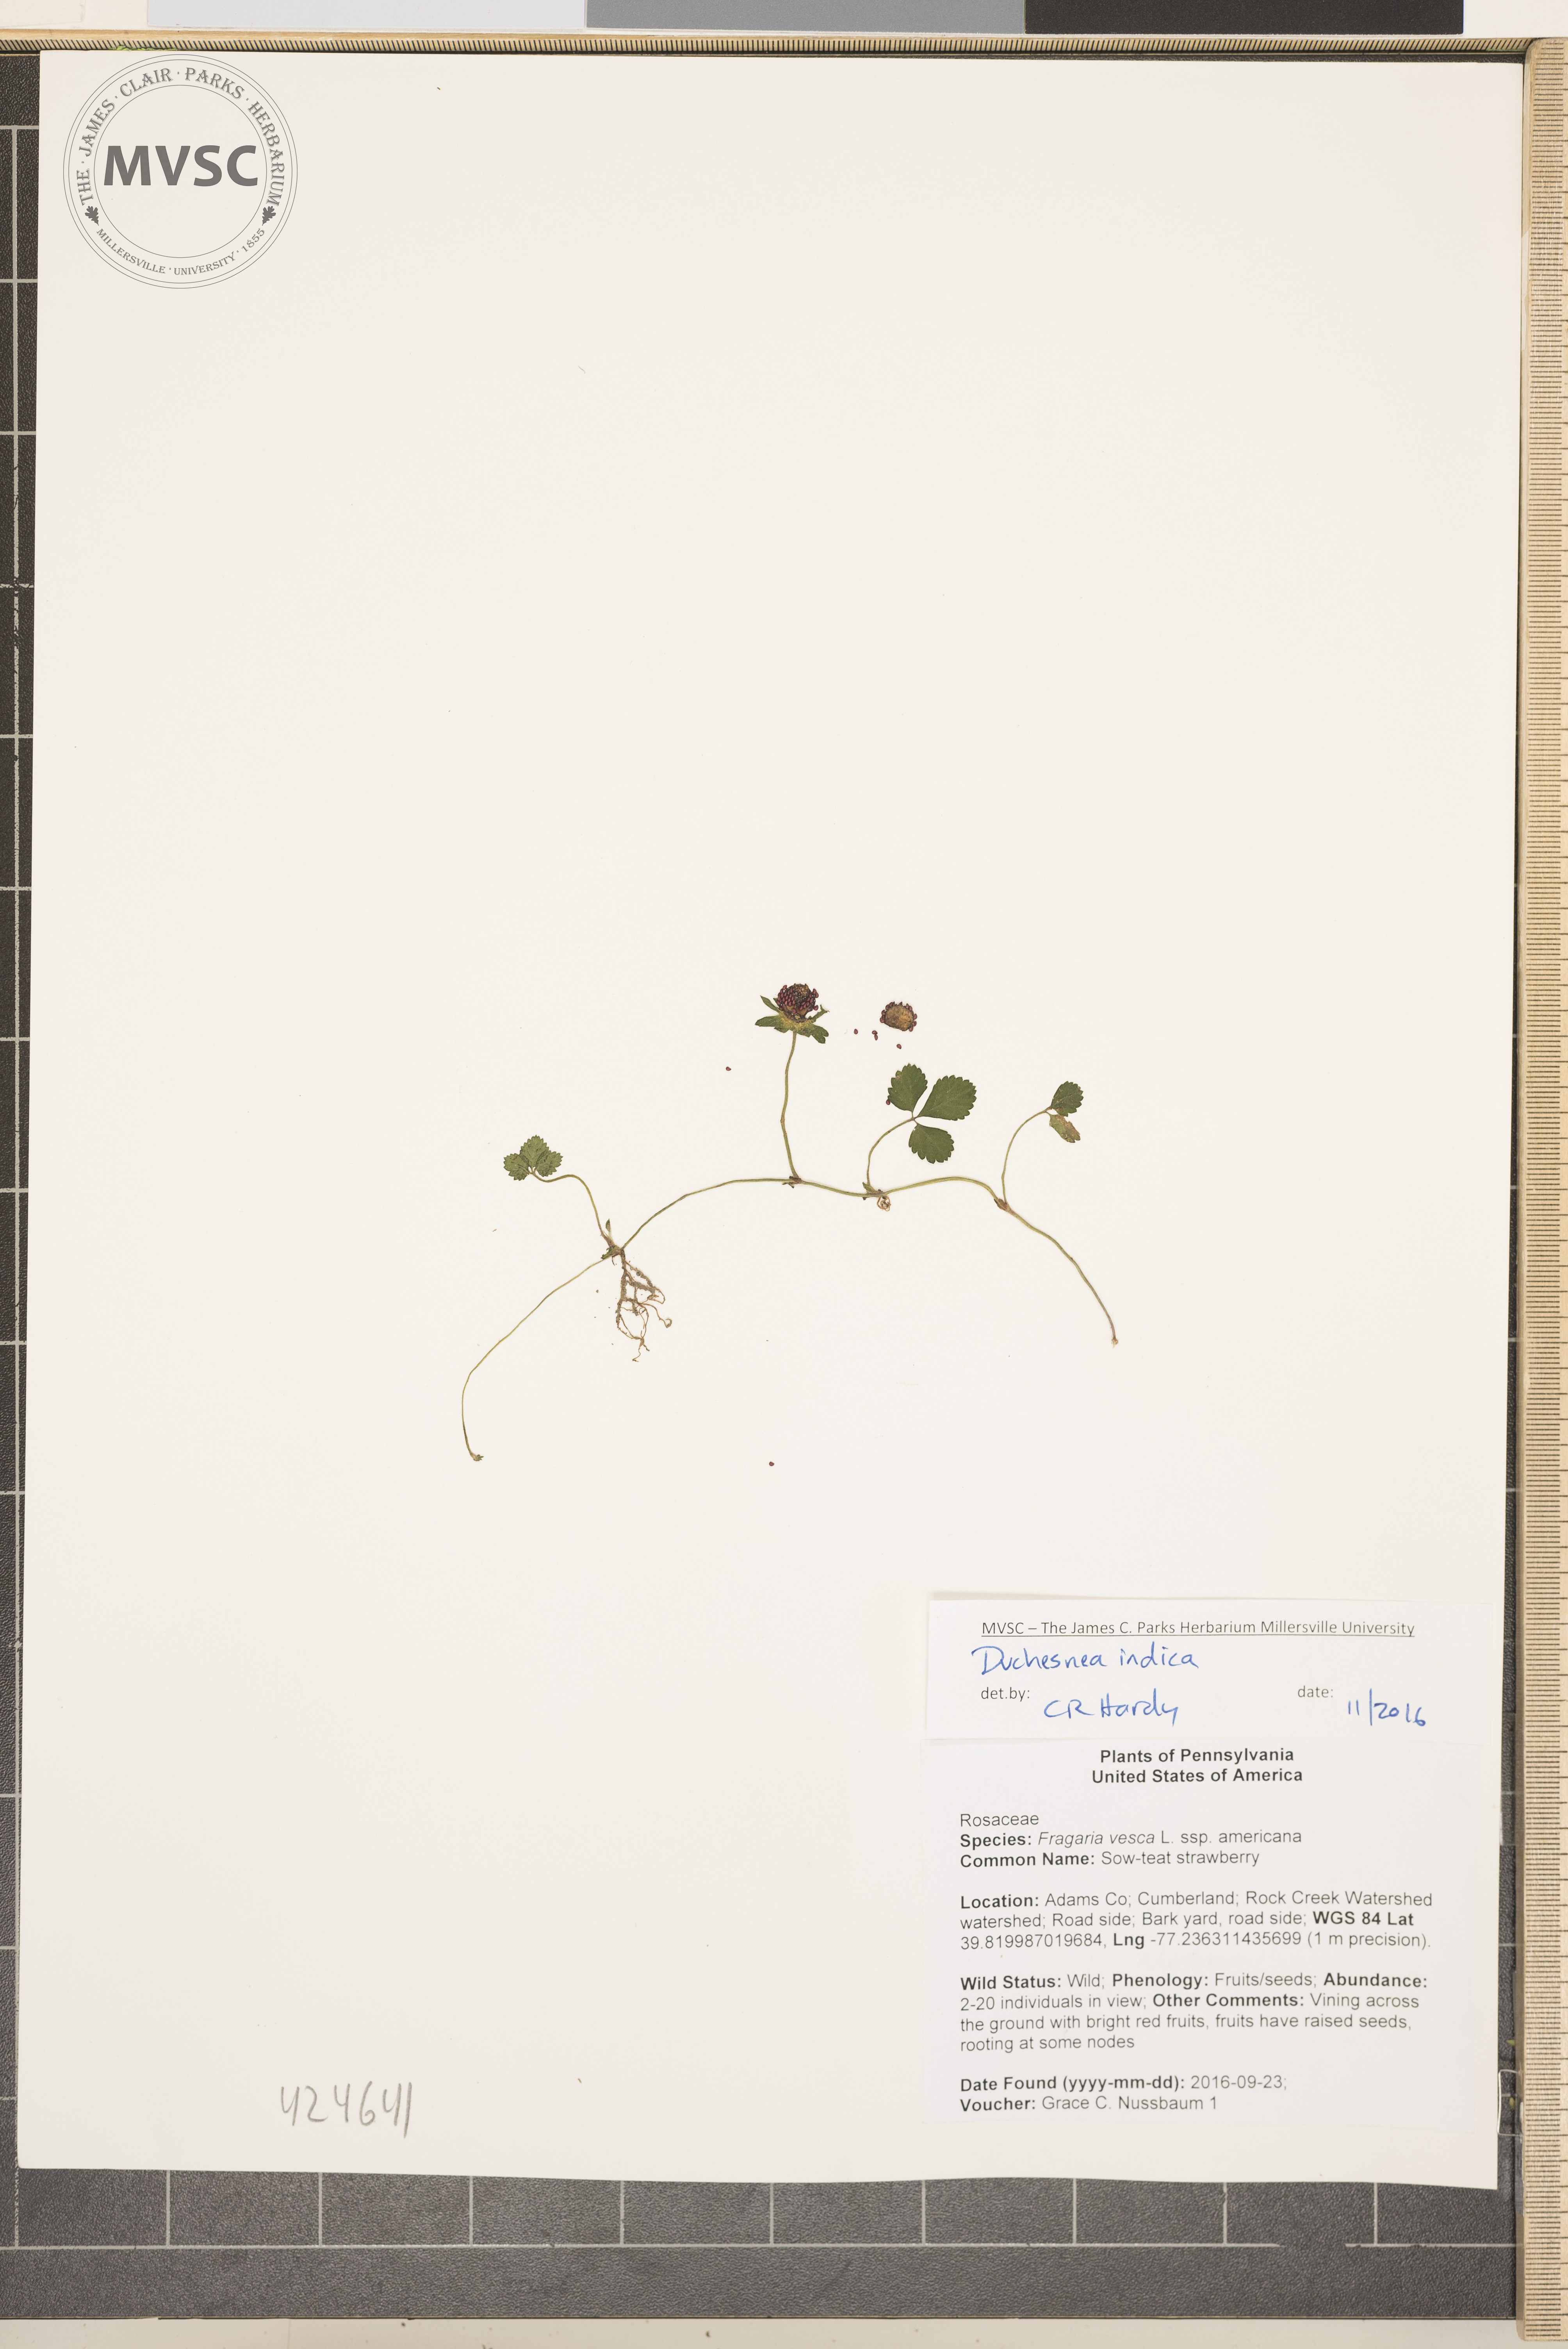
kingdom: Plantae
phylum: Tracheophyta
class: Magnoliopsida
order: Rosales
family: Rosaceae
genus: Potentilla
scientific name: Potentilla indica
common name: Indian-strawberry
